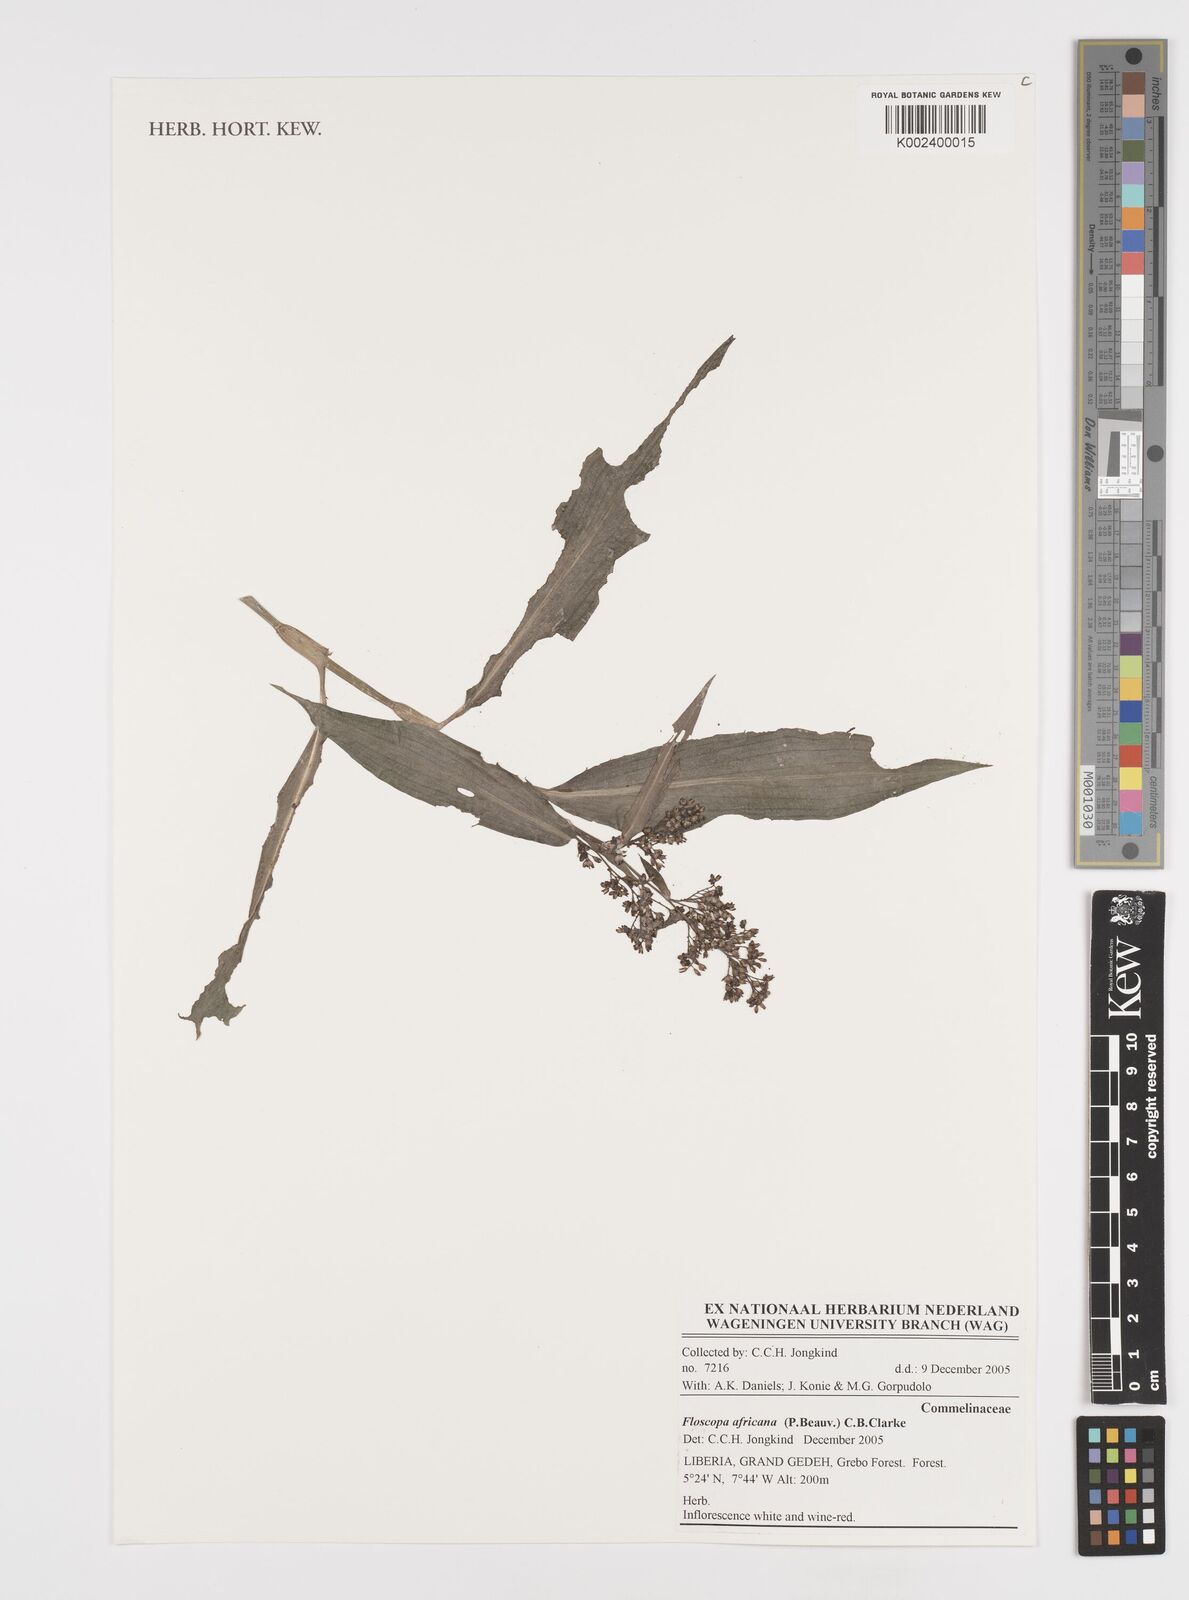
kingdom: Plantae
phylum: Tracheophyta
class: Liliopsida
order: Commelinales
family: Commelinaceae
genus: Floscopa
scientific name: Floscopa africana
